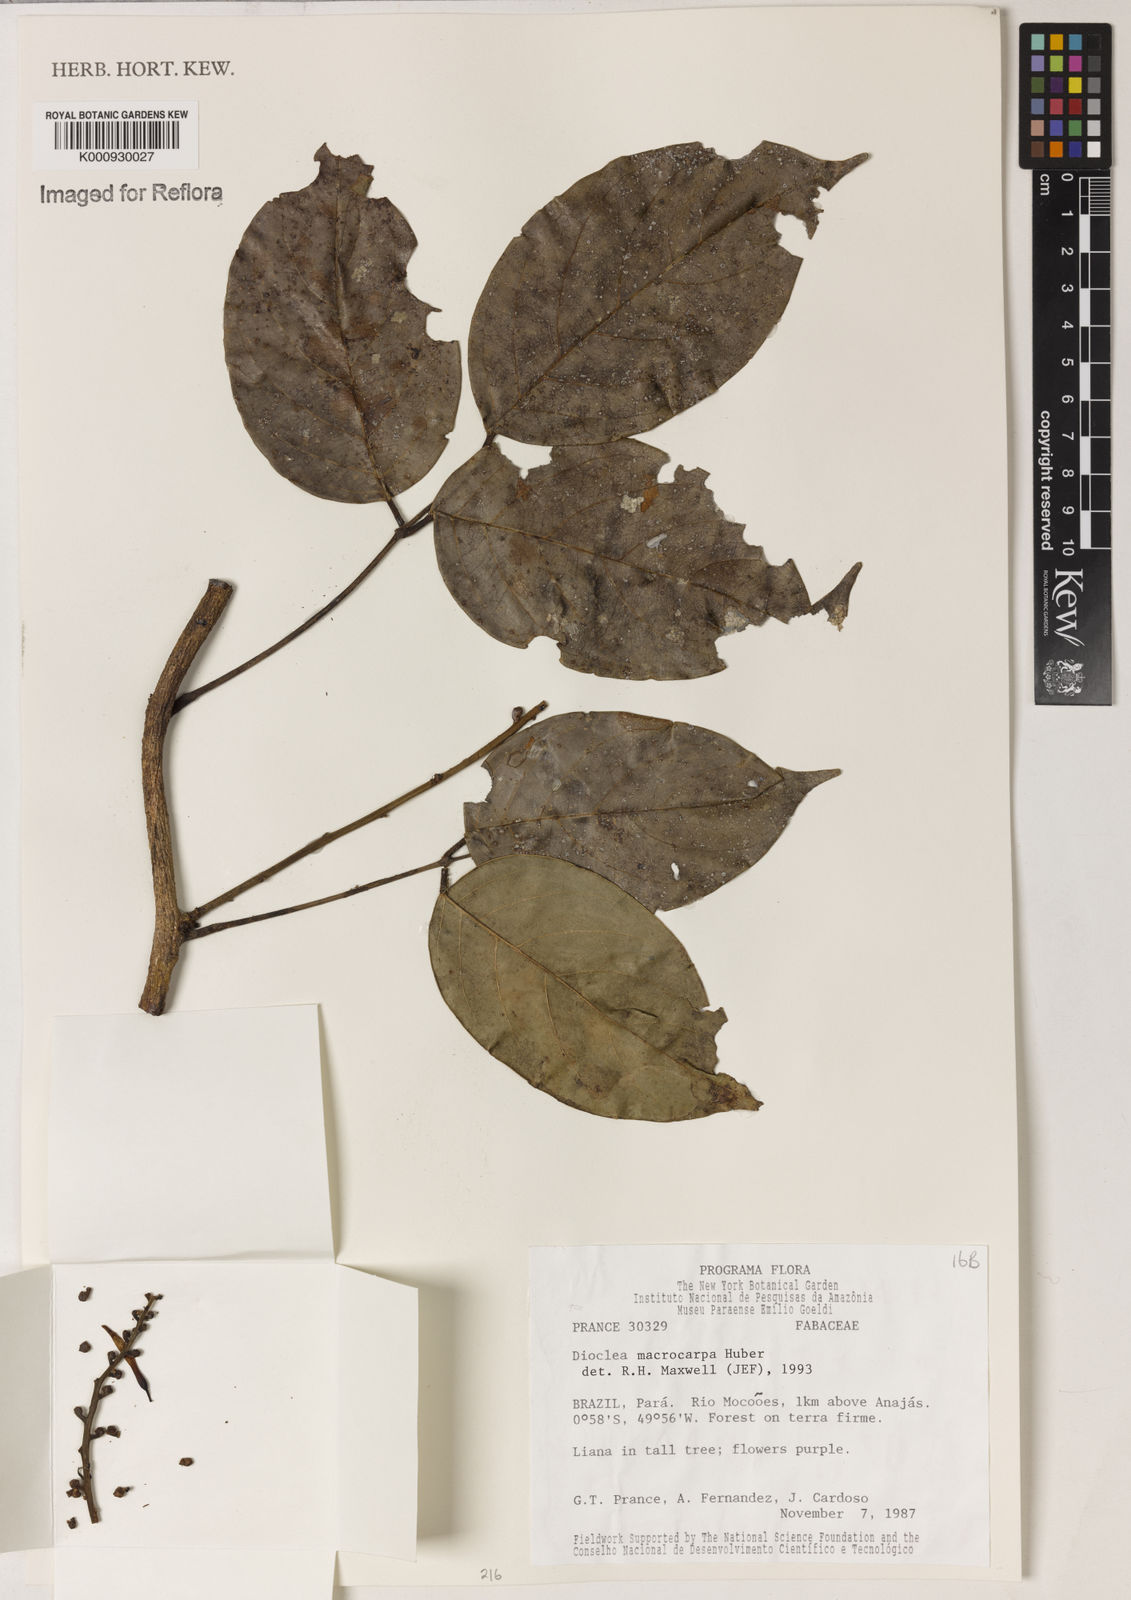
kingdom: Plantae
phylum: Tracheophyta
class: Magnoliopsida
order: Fabales
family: Fabaceae
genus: Macropsychanthus
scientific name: Macropsychanthus macrocarpus
